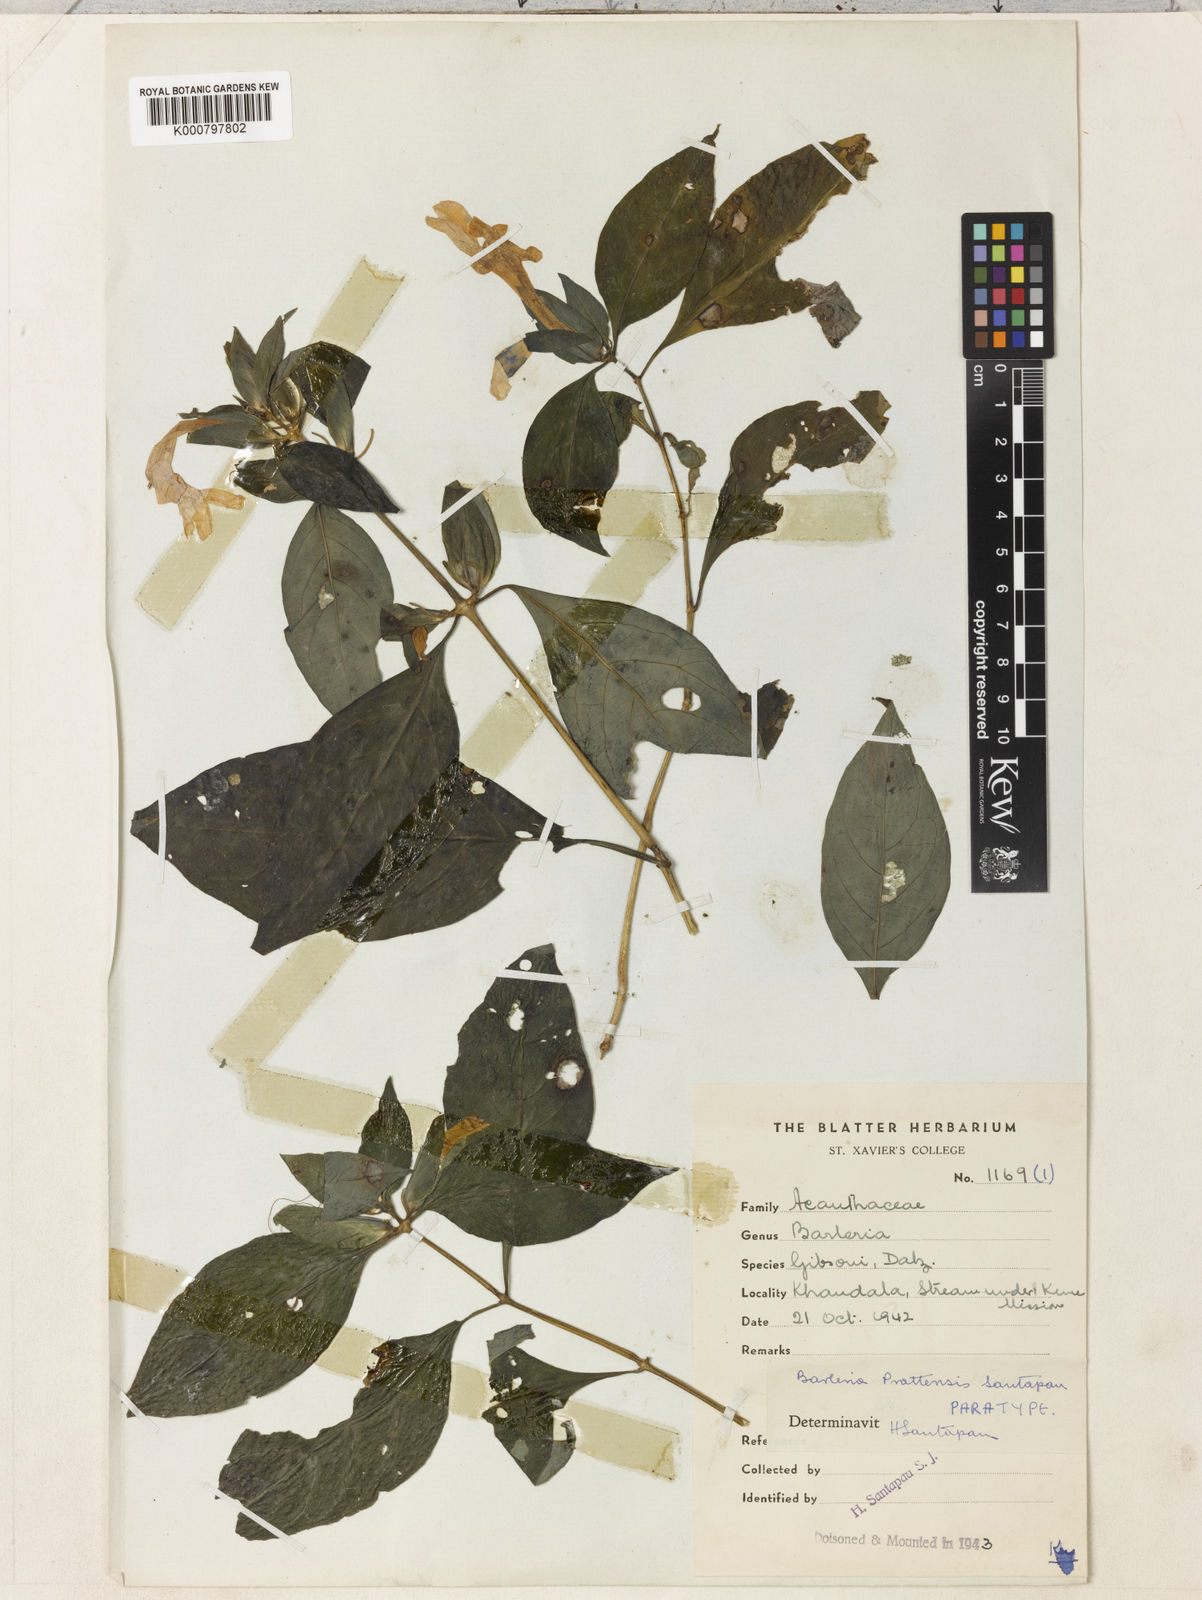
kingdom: Plantae
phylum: Tracheophyta
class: Magnoliopsida
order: Lamiales
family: Acanthaceae
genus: Barleria
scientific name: Barleria prattensis
